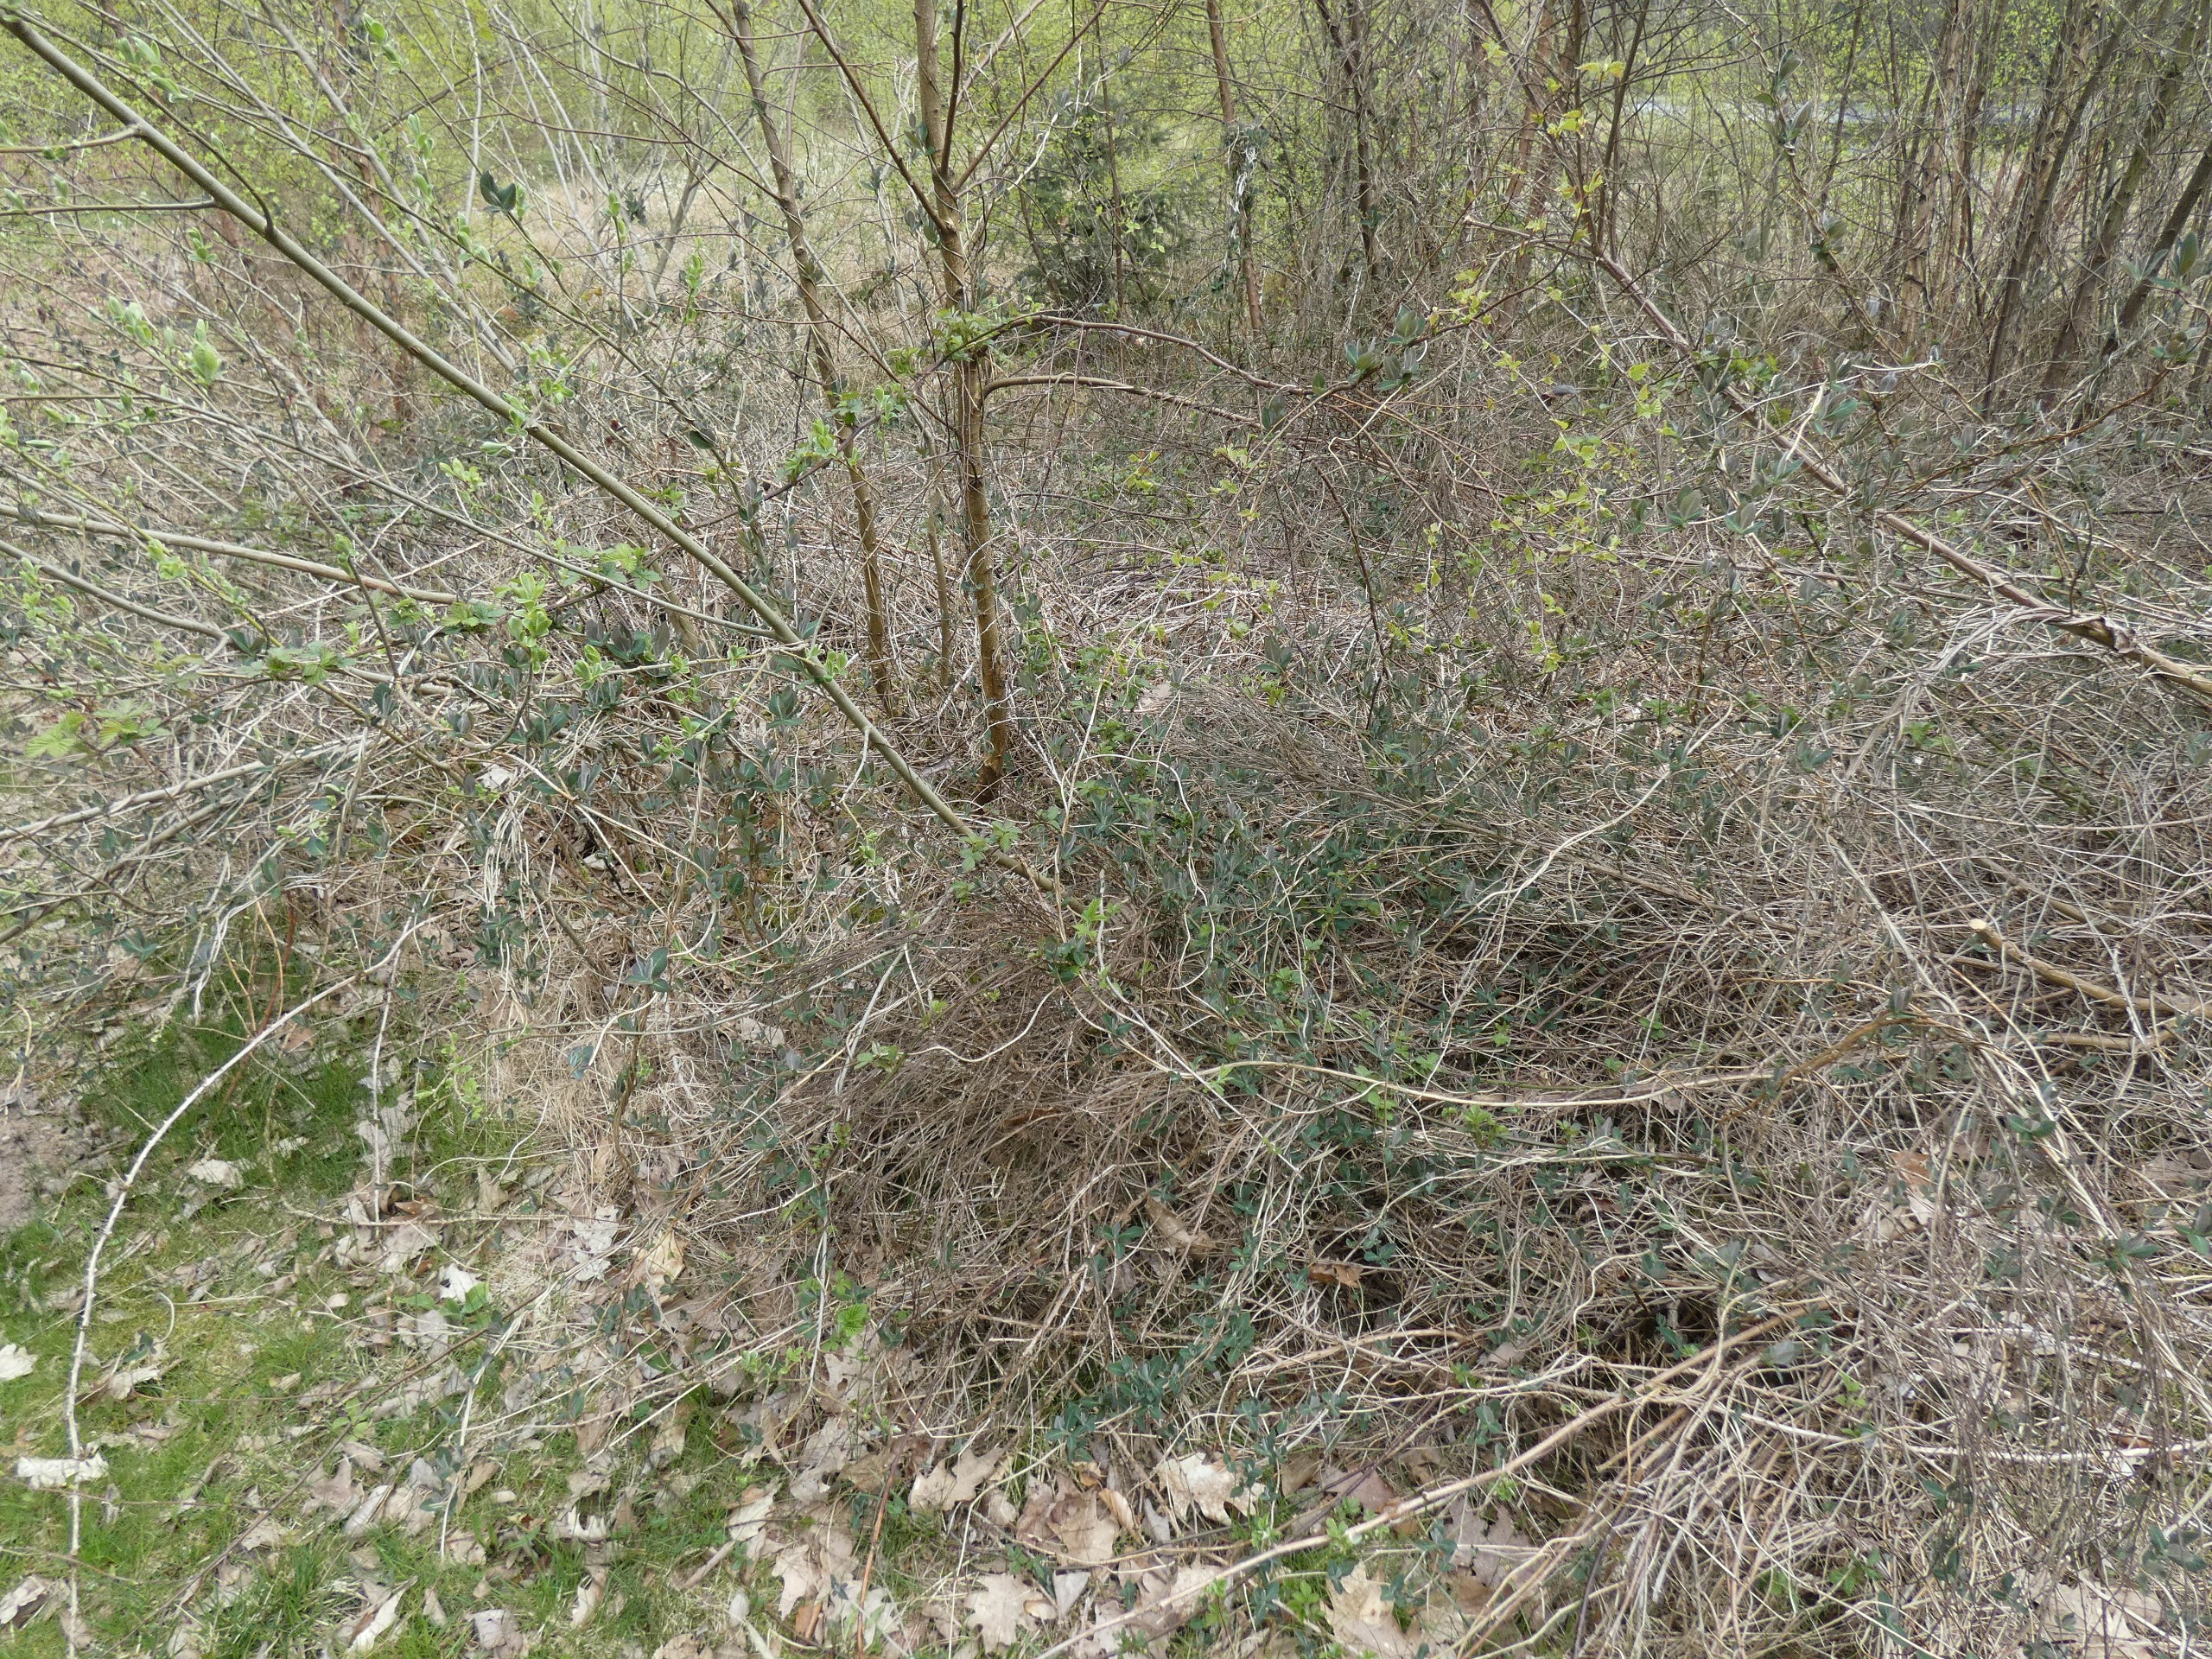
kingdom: Plantae
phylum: Tracheophyta
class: Magnoliopsida
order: Dipsacales
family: Caprifoliaceae
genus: Lonicera
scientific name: Lonicera periclymenum
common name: Almindelig gedeblad
